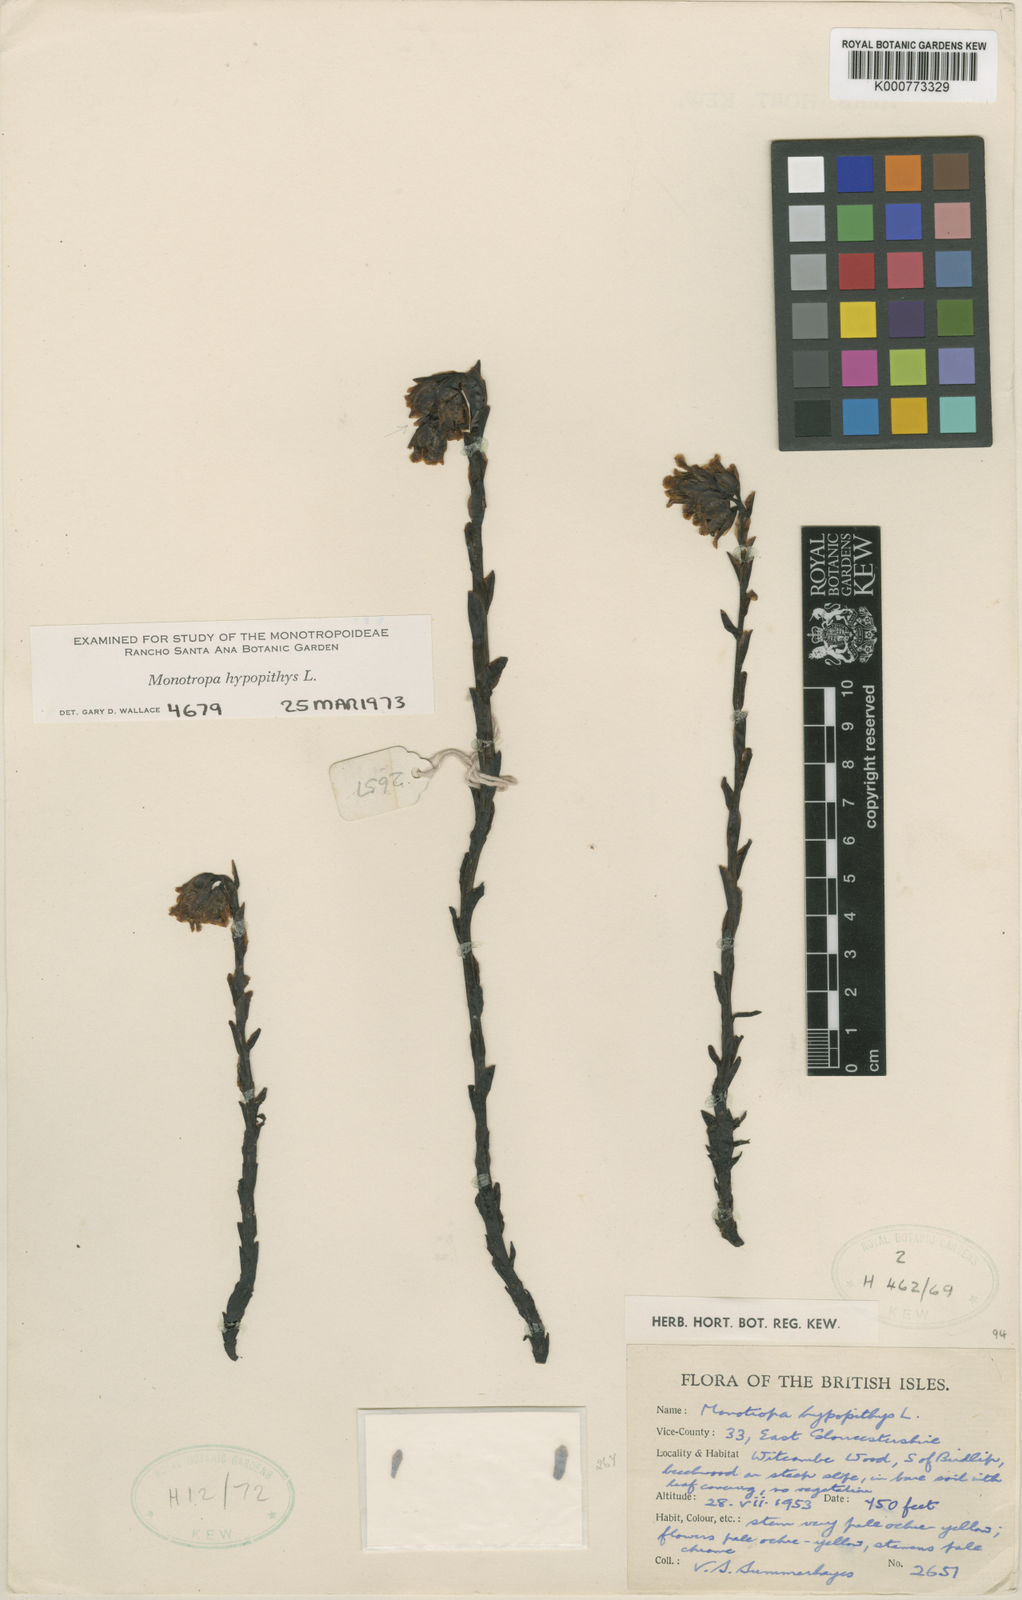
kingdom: Plantae
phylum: Tracheophyta
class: Magnoliopsida
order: Ericales
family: Ericaceae
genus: Monotropa
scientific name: Monotropa
